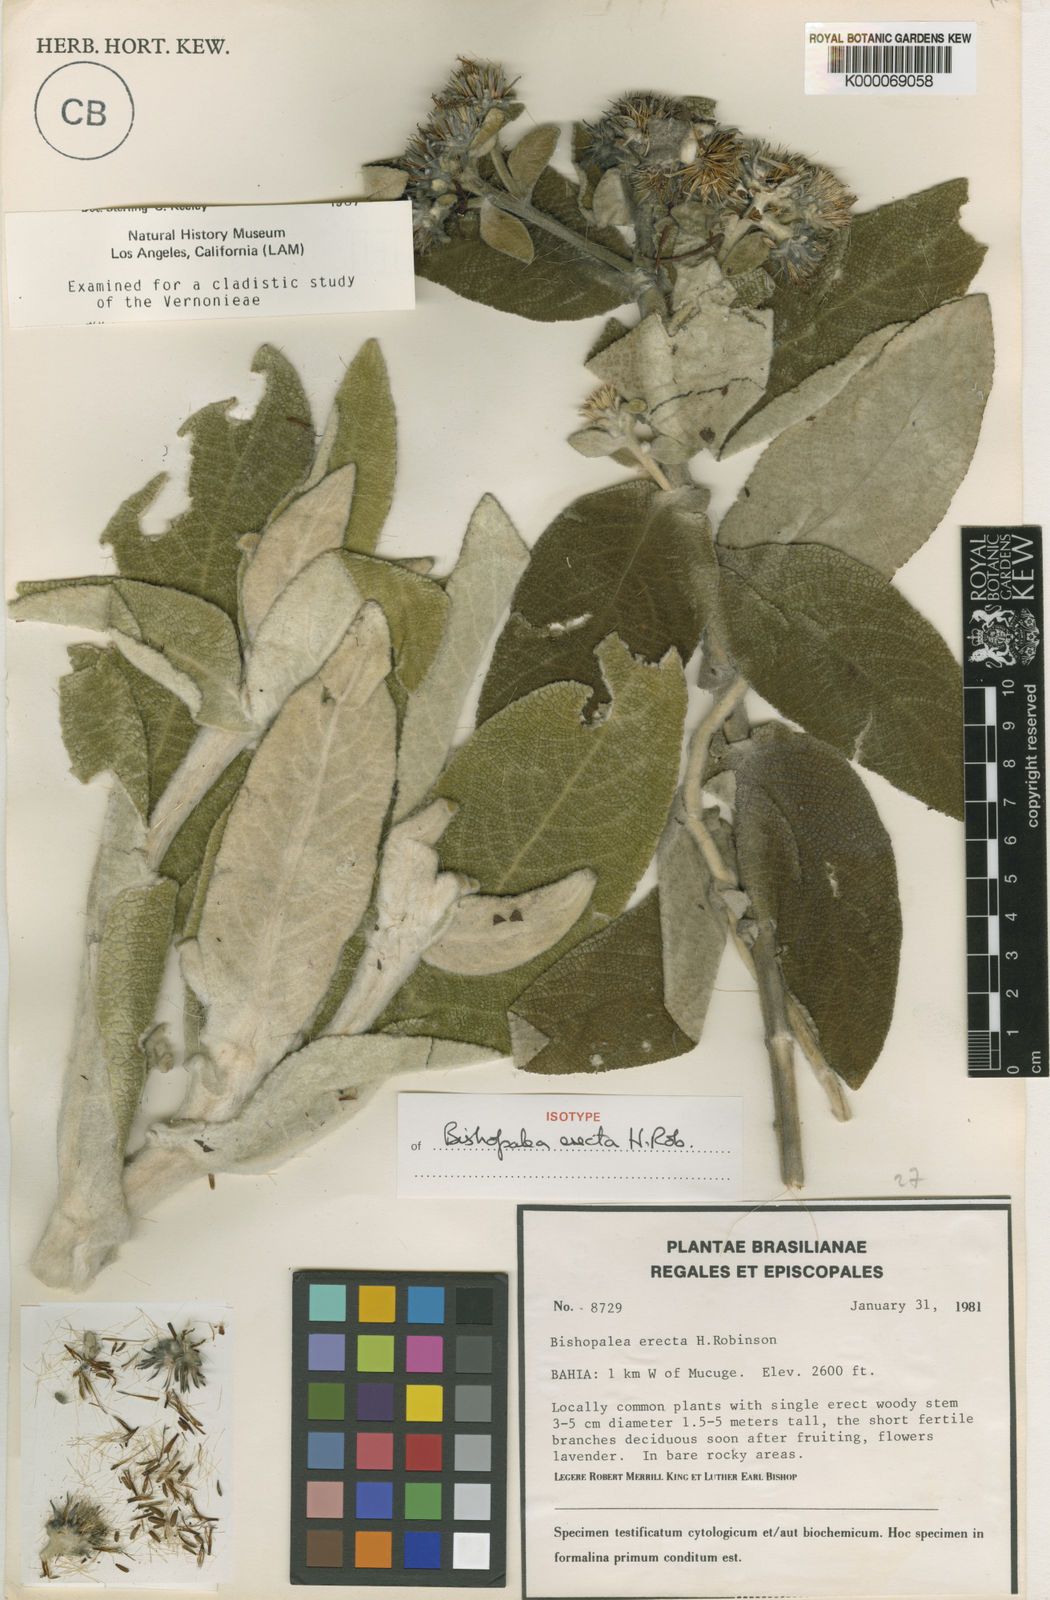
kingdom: Plantae
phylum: Tracheophyta
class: Magnoliopsida
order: Asterales
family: Asteraceae
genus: Heterocoma
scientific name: Heterocoma erecta
